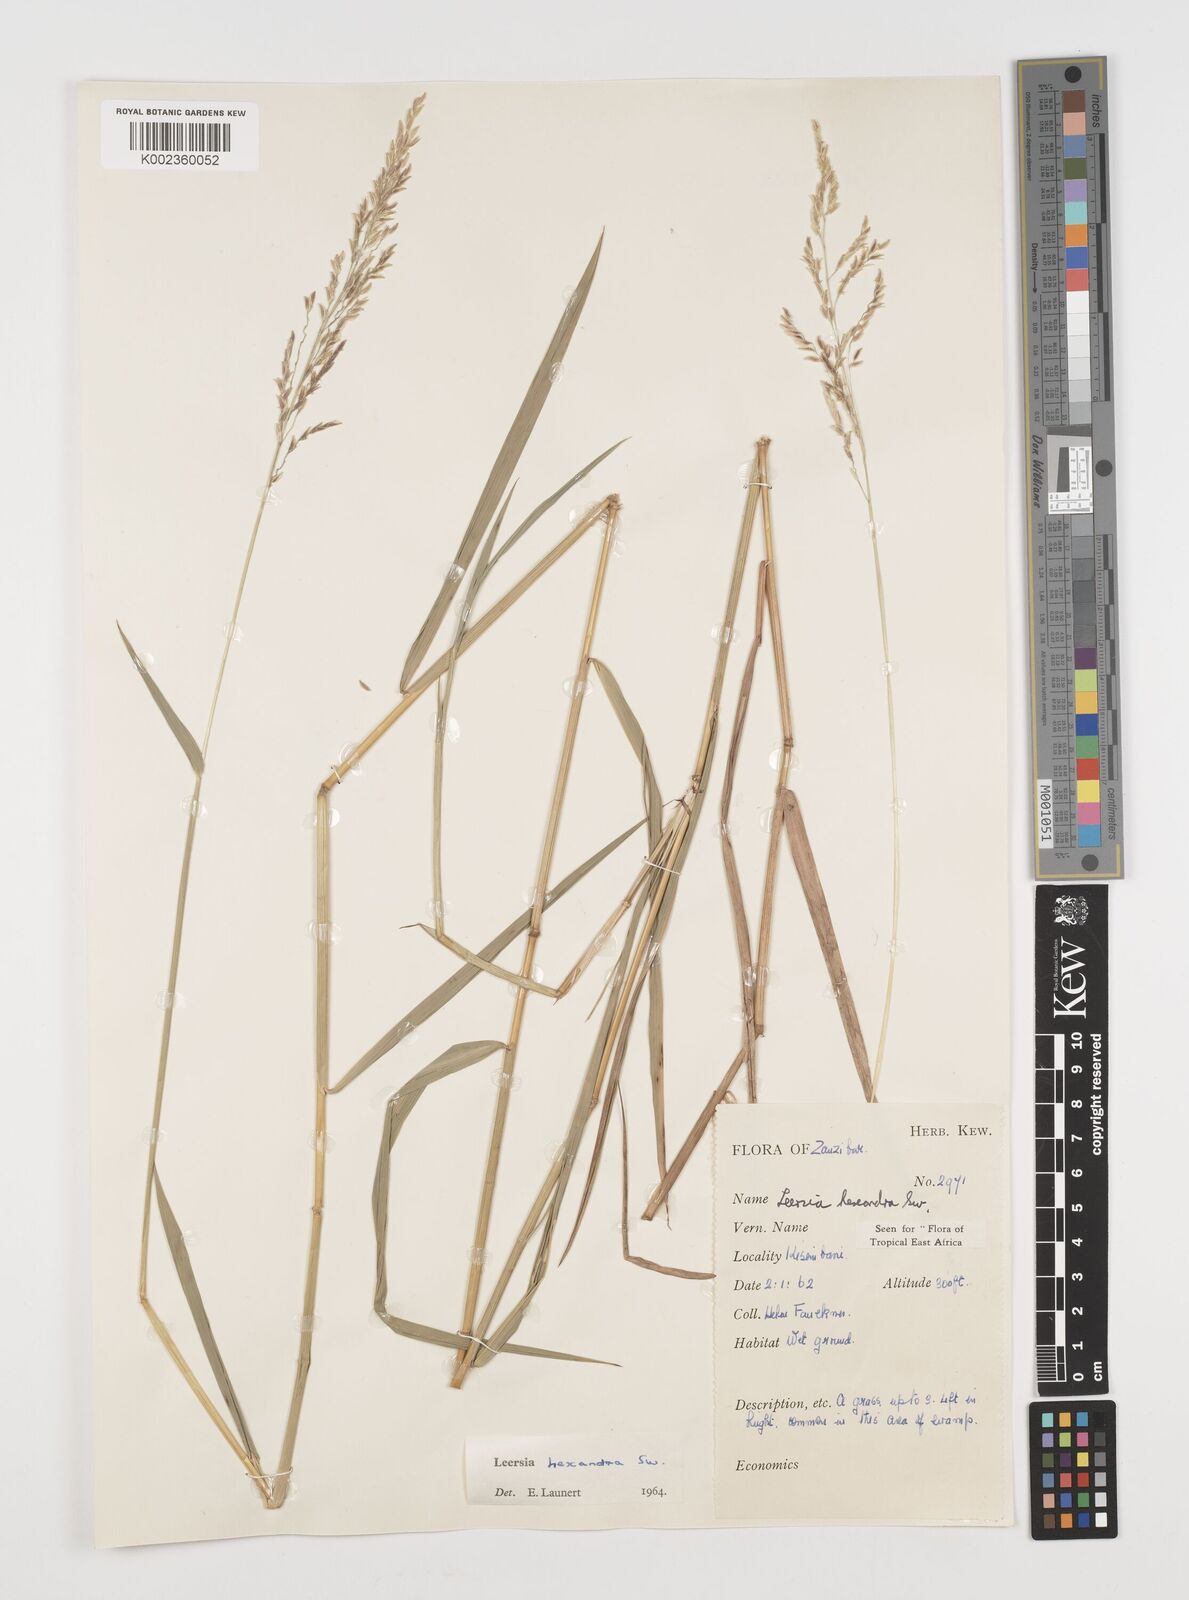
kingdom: Plantae
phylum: Tracheophyta
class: Liliopsida
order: Poales
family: Poaceae
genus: Leersia
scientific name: Leersia hexandra
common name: Southern cut grass
